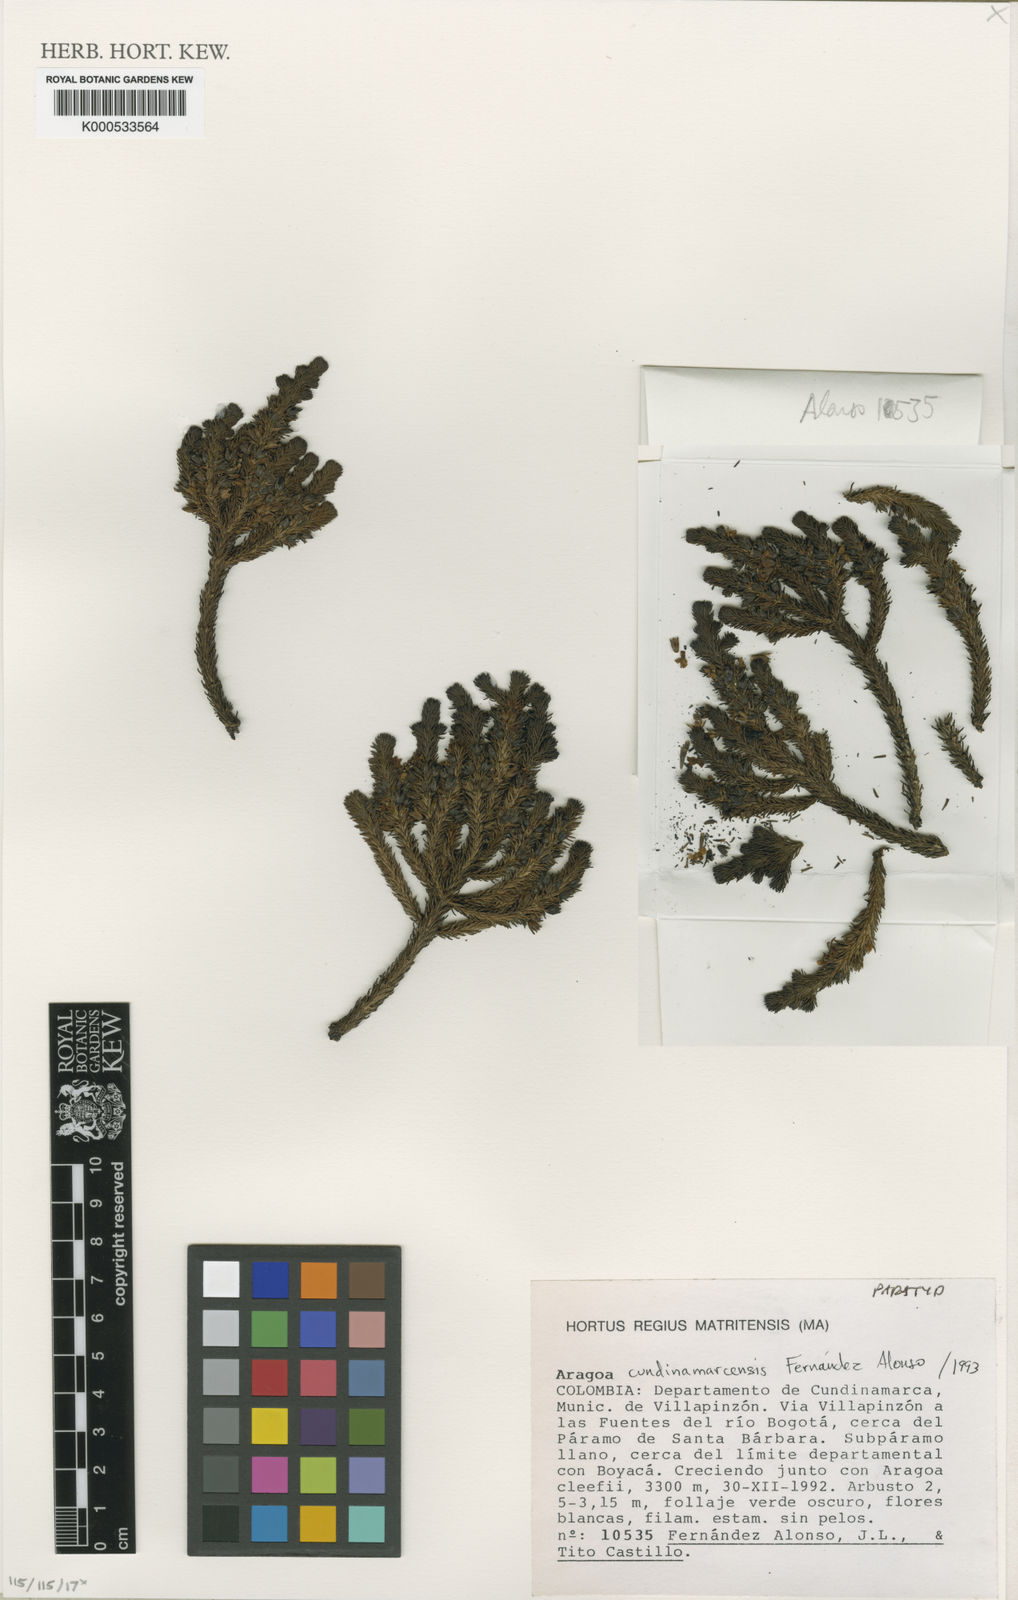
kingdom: Plantae
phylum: Tracheophyta
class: Magnoliopsida
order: Lamiales
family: Plantaginaceae
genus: Aragoa
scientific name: Aragoa cundinamarcensis
